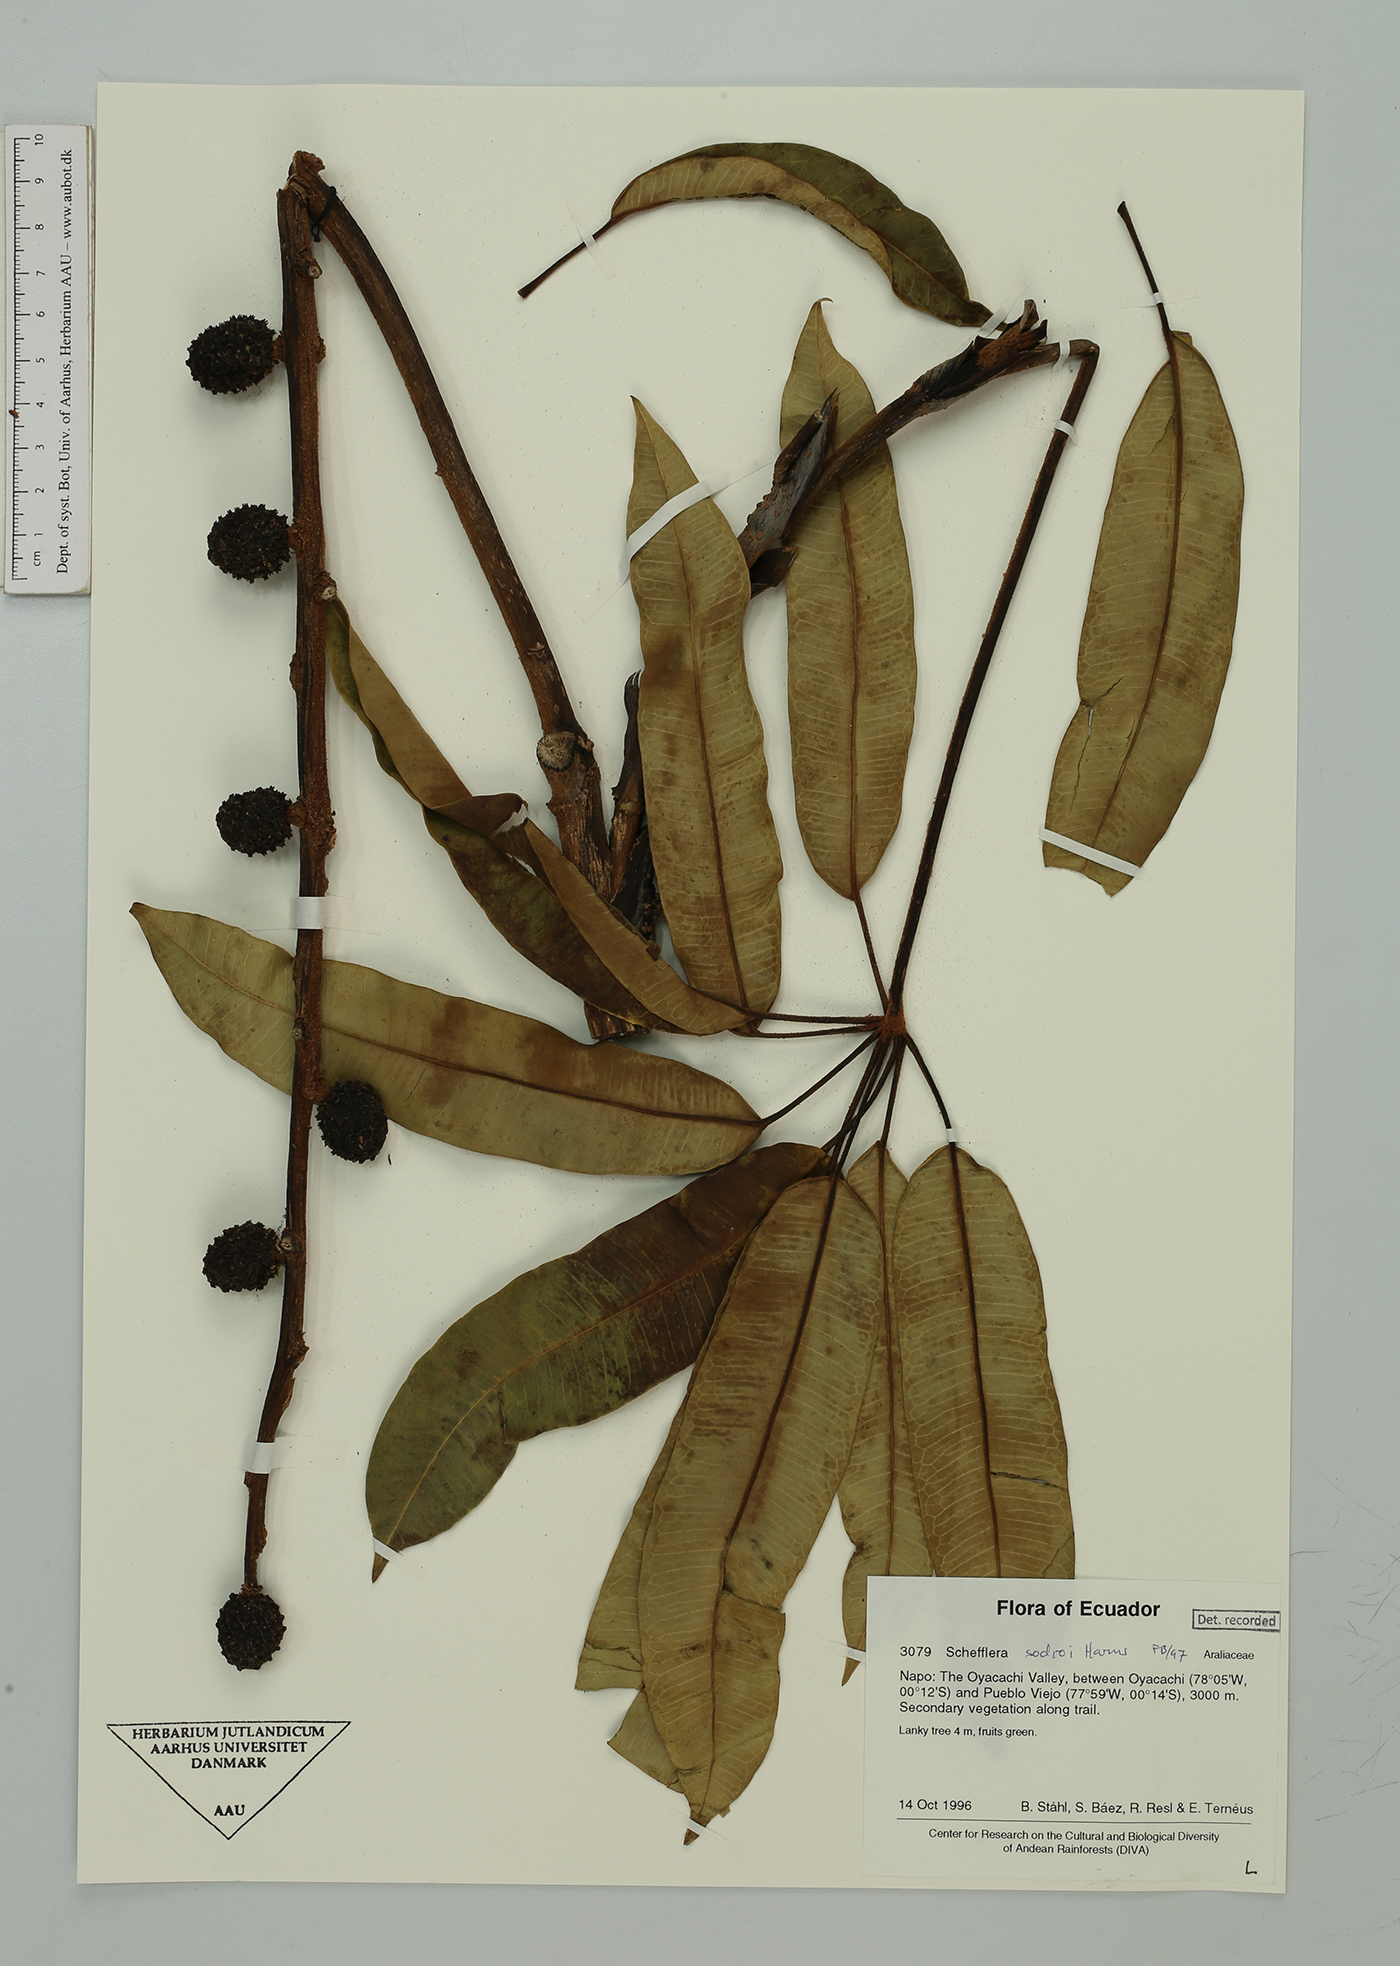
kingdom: Plantae
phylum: Tracheophyta
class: Magnoliopsida
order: Apiales
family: Araliaceae
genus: Sciodaphyllum
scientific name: Sciodaphyllum sodiroi
